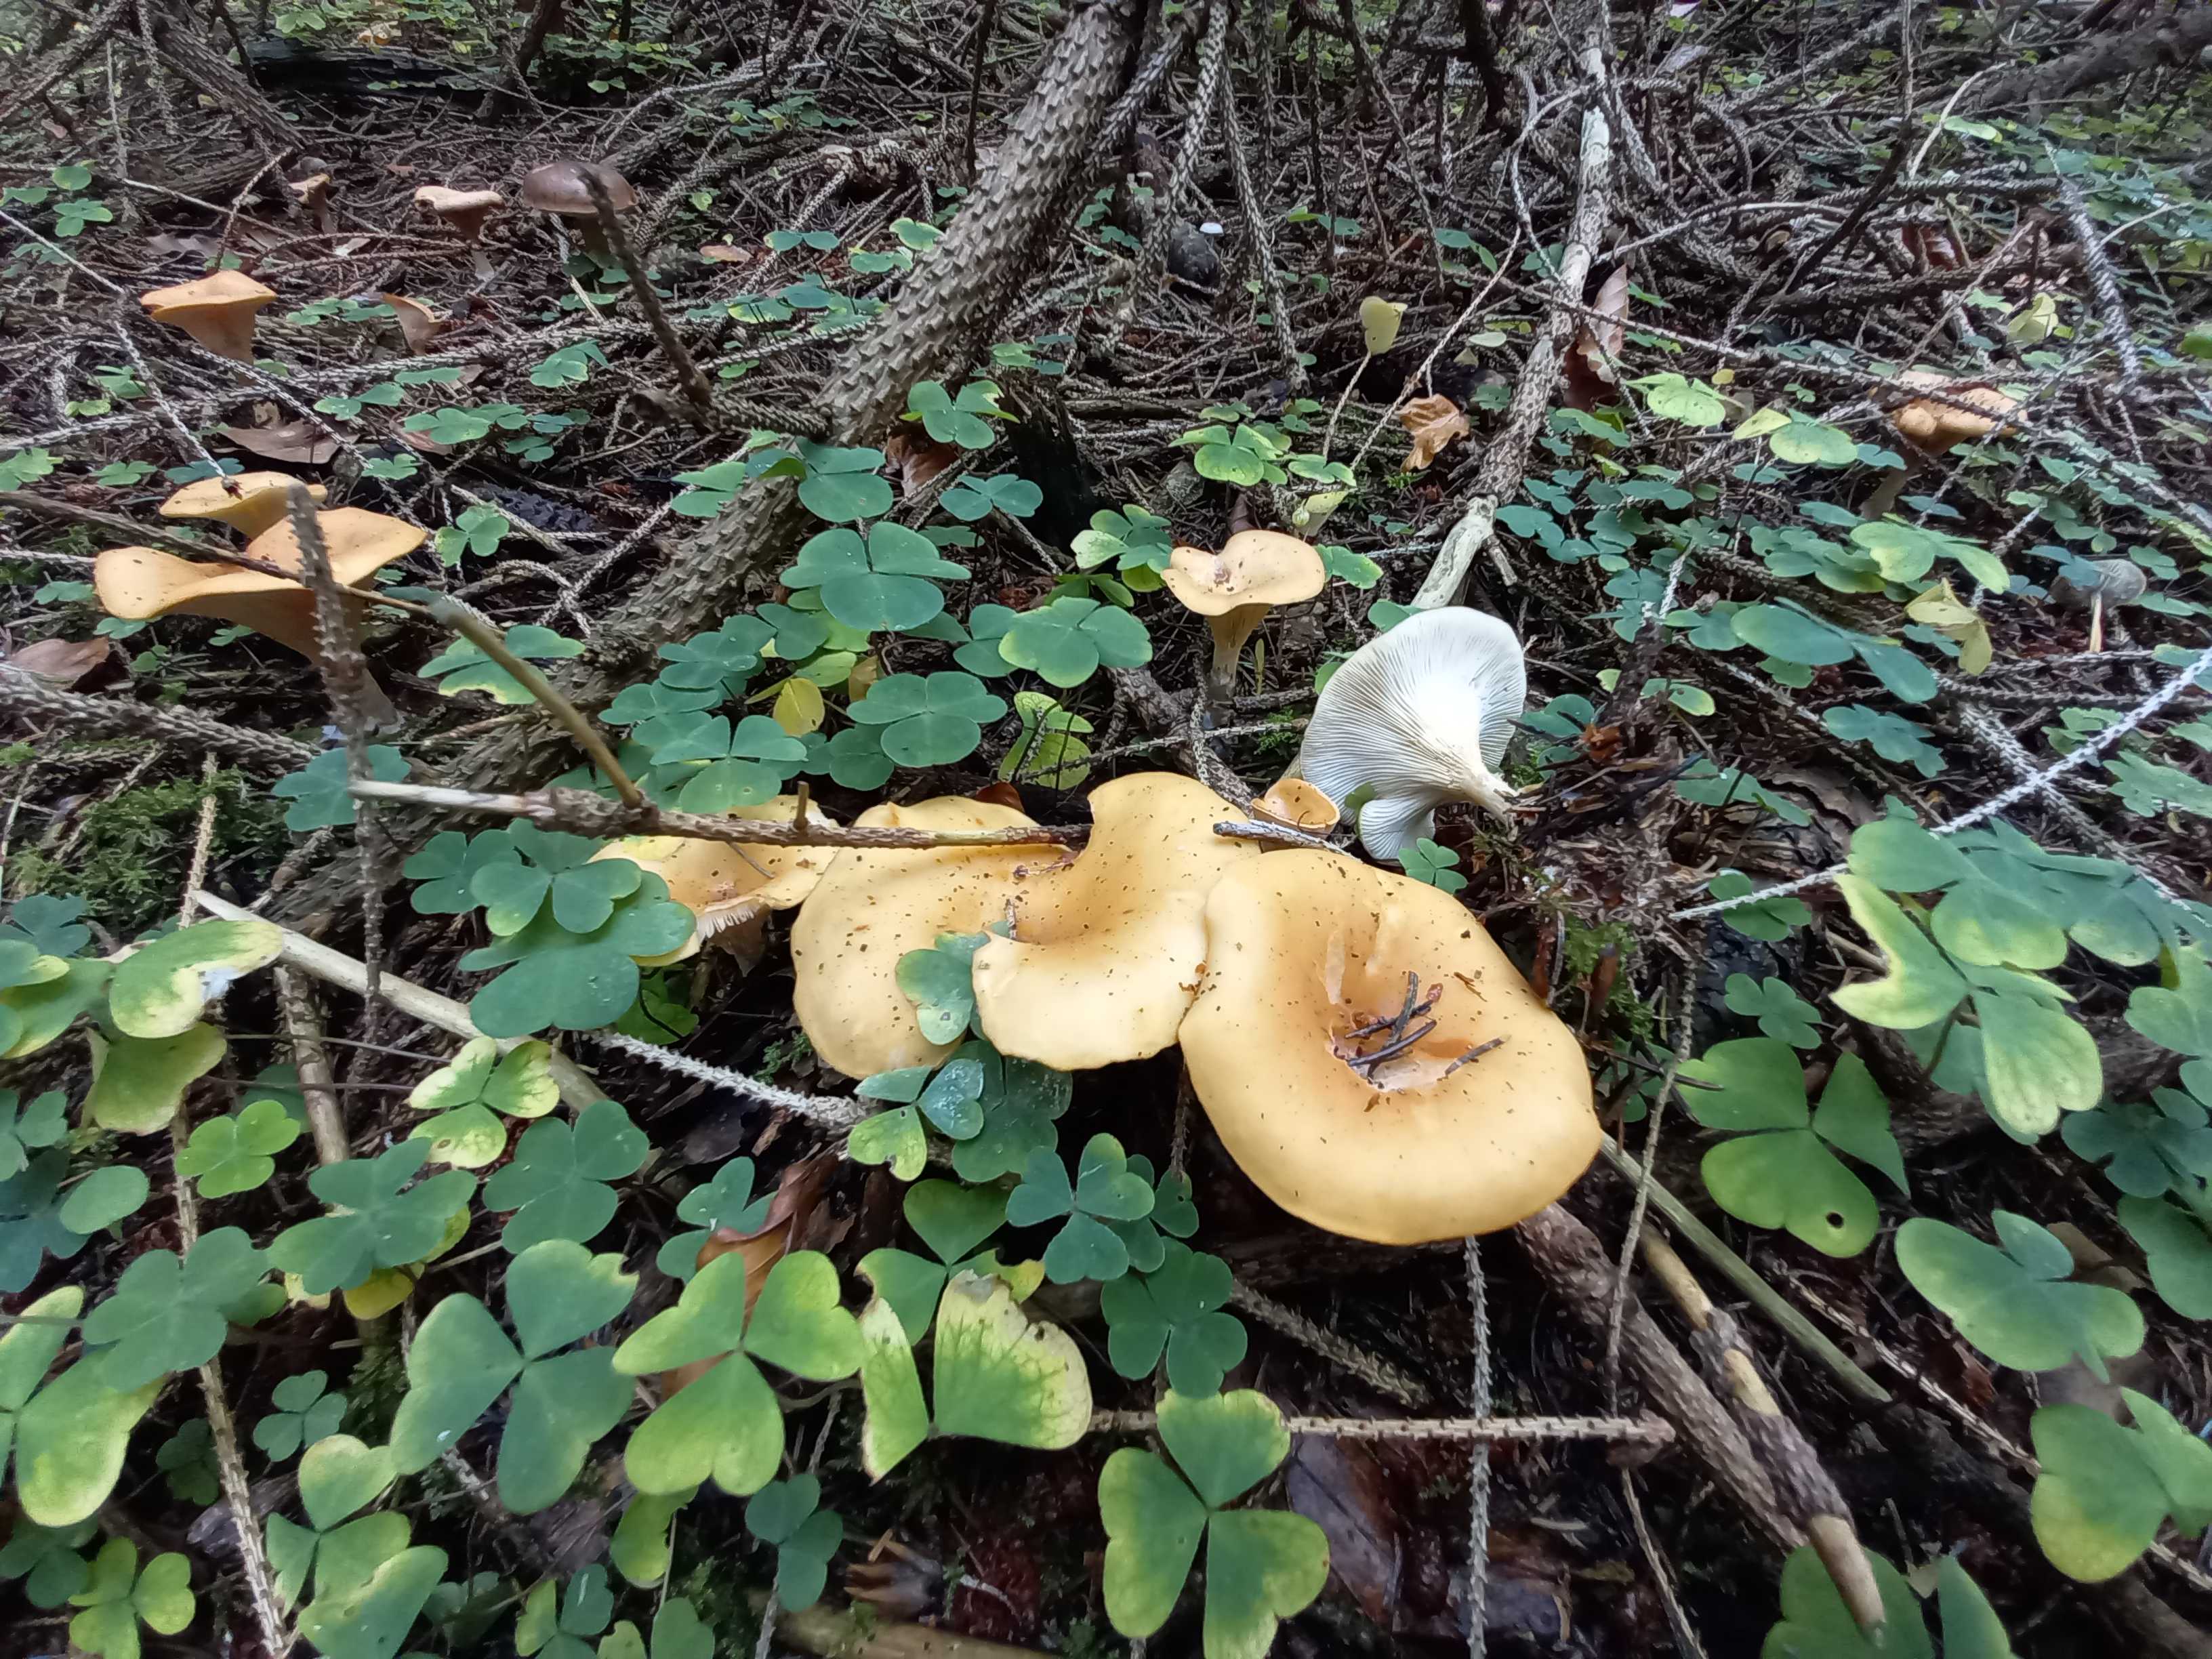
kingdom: Fungi
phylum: Basidiomycota
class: Agaricomycetes
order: Agaricales
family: Tricholomataceae
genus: Paralepista
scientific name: Paralepista flaccida
